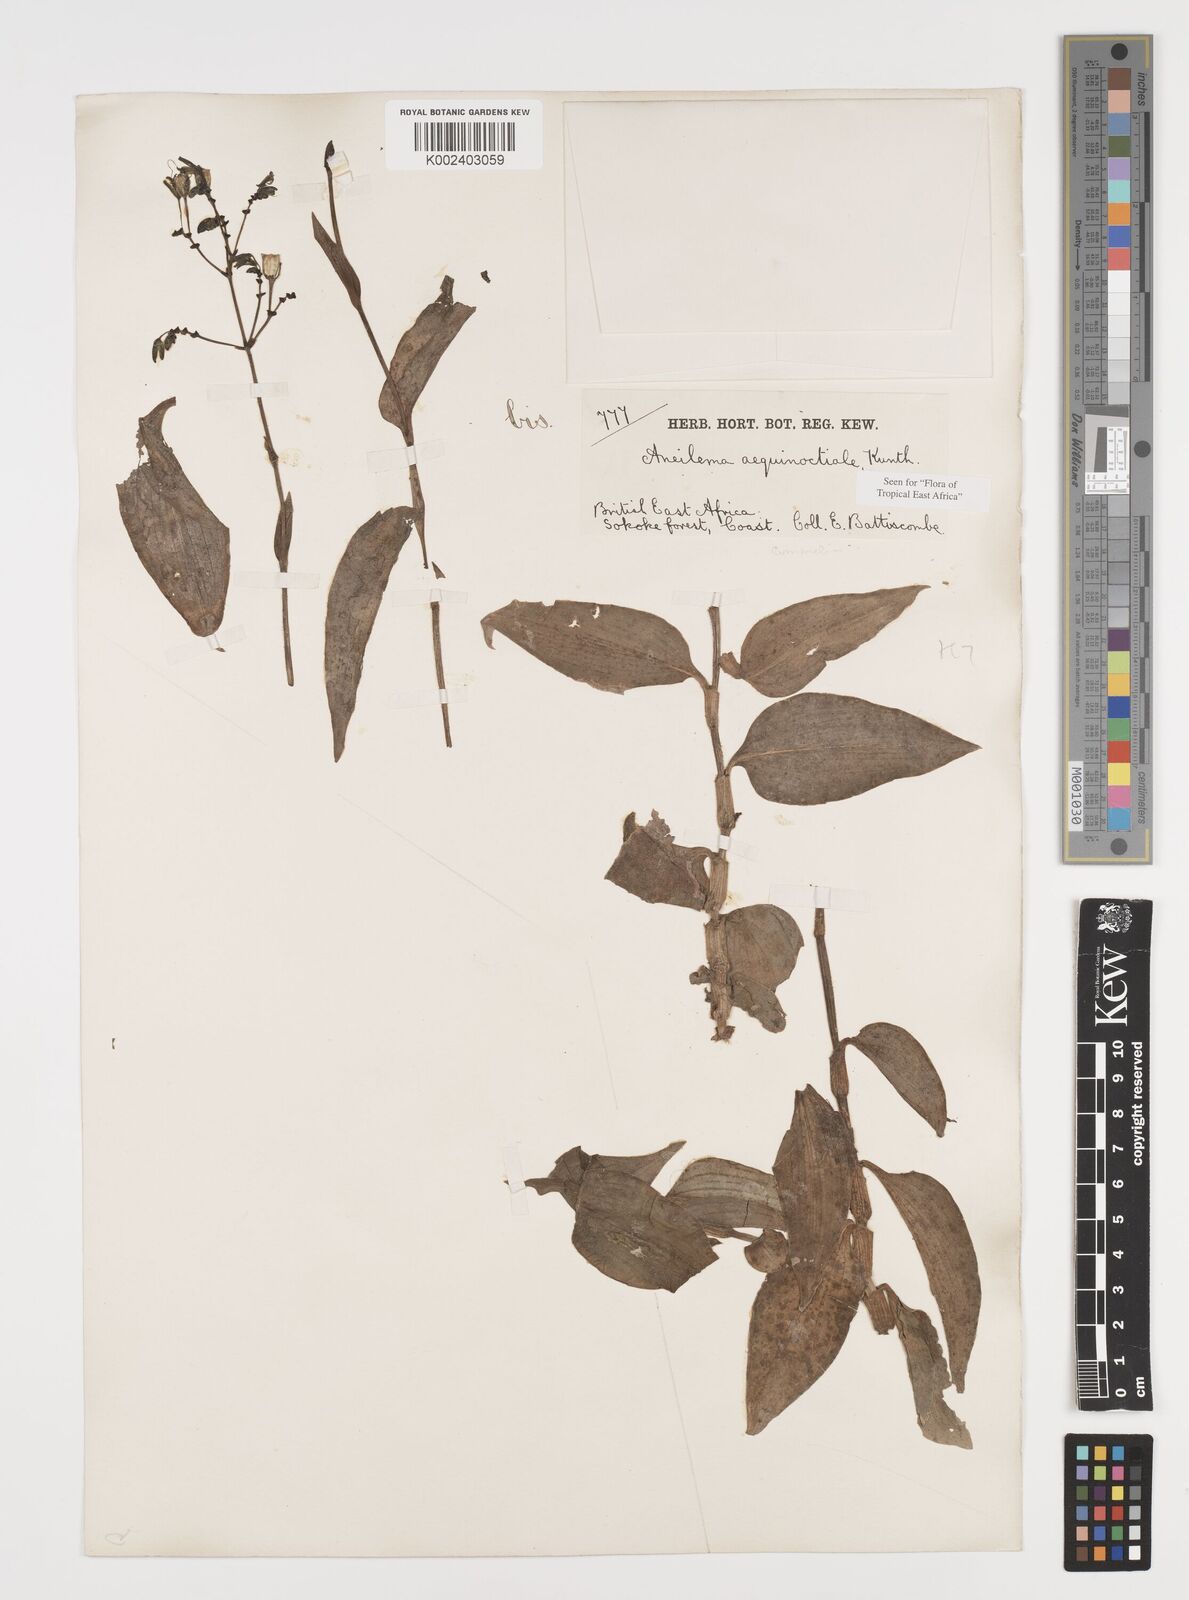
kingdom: Plantae
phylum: Tracheophyta
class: Liliopsida
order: Commelinales
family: Commelinaceae
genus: Aneilema
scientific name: Aneilema aequinoctiale
